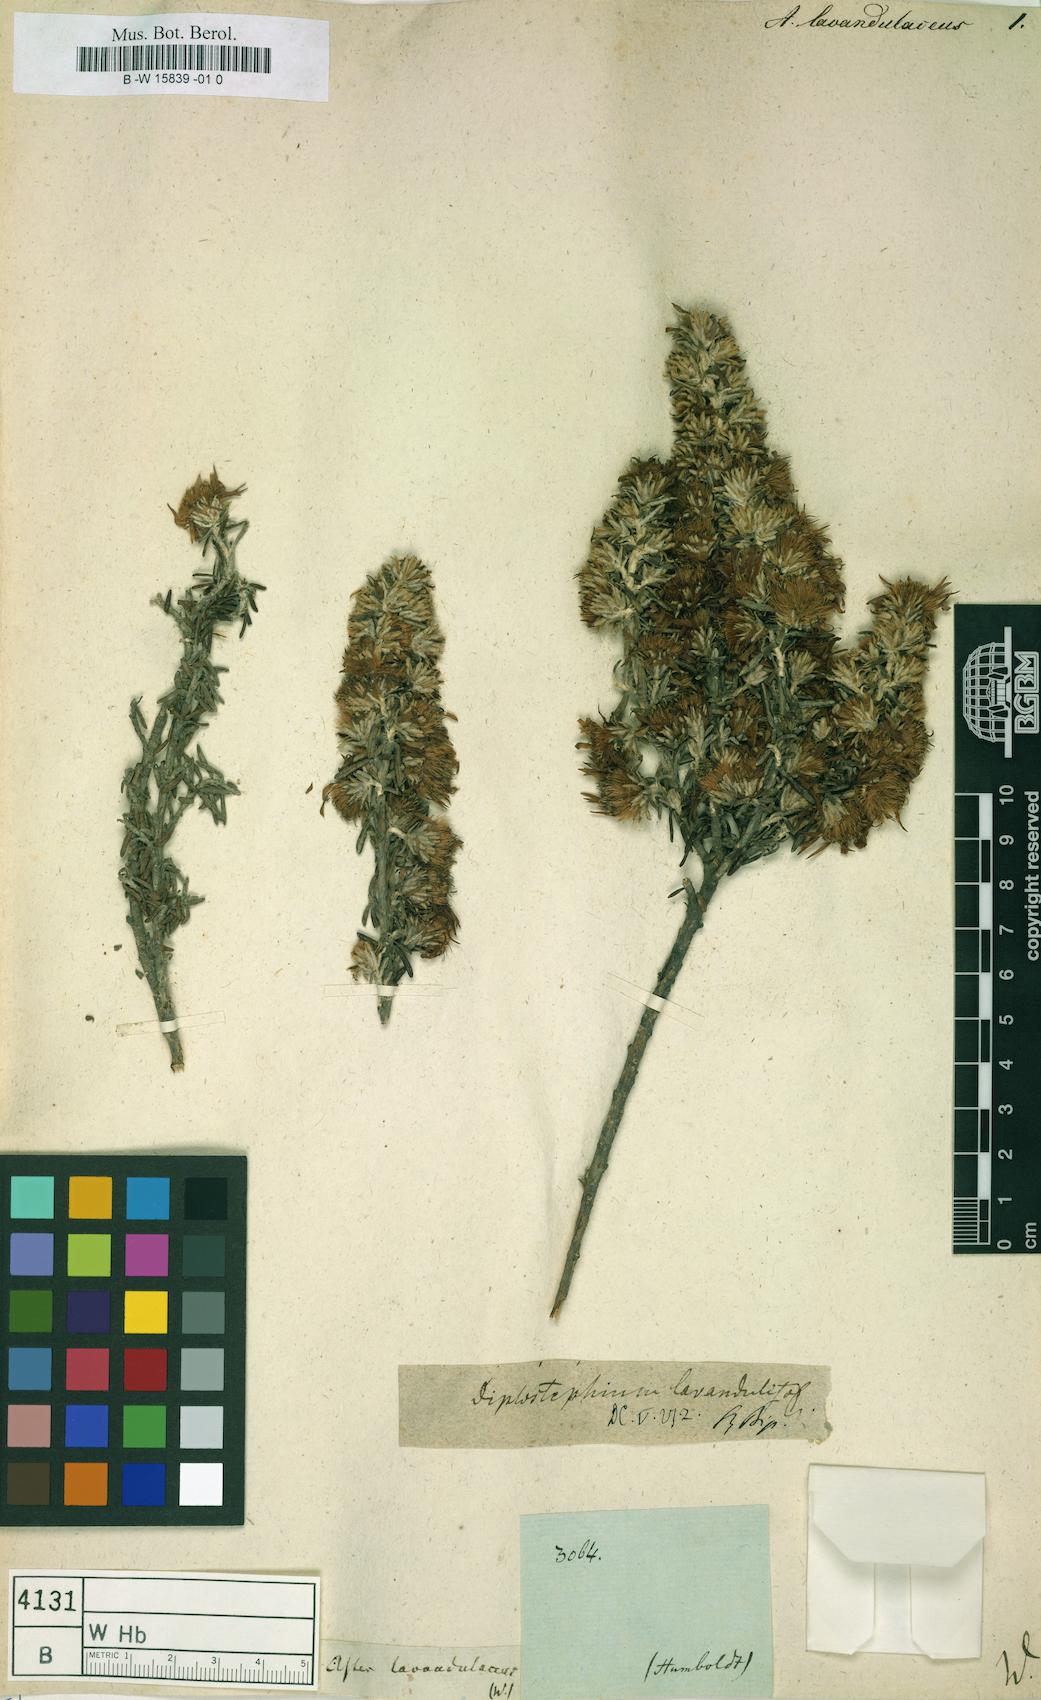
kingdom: Plantae
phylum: Tracheophyta
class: Magnoliopsida
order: Asterales
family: Asteraceae
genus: Diplostephium
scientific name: Diplostephium ericoides
